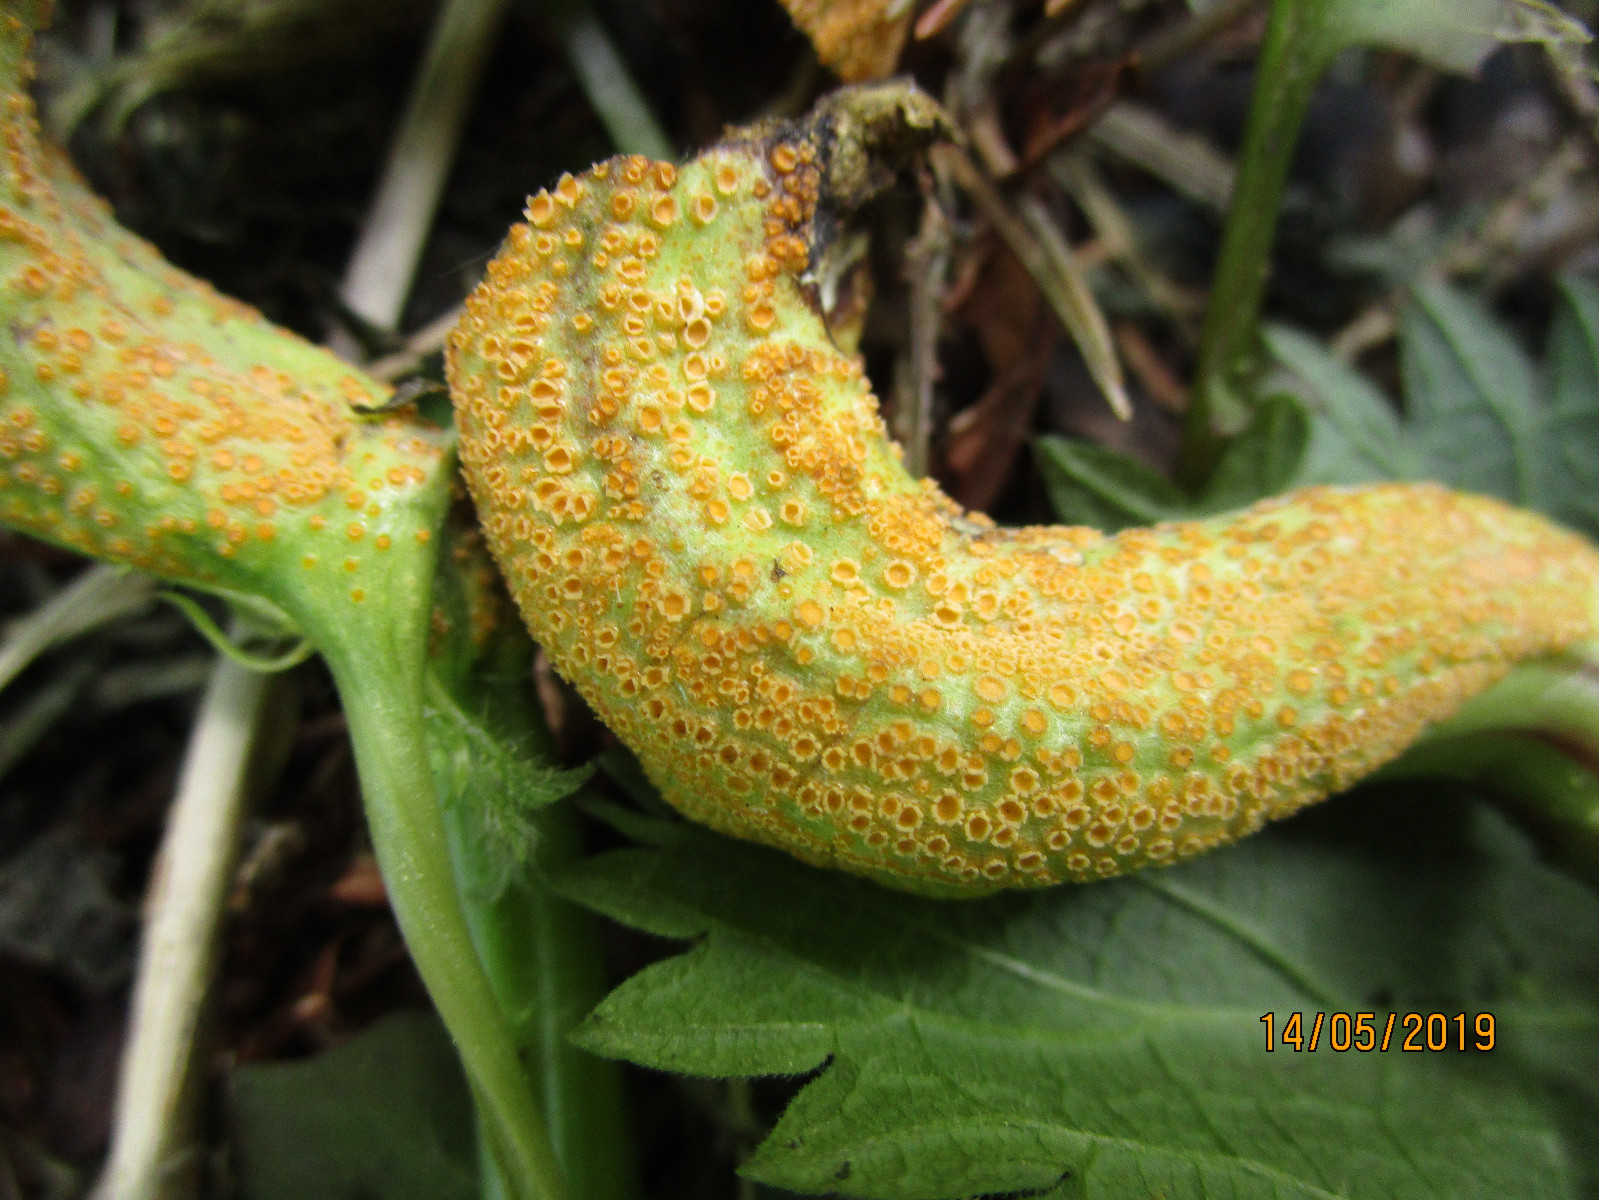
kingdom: Fungi
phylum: Basidiomycota
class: Pucciniomycetes
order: Pucciniales
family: Pucciniaceae
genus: Puccinia
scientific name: Puccinia urticata
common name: nældegalle-tvecellerust
